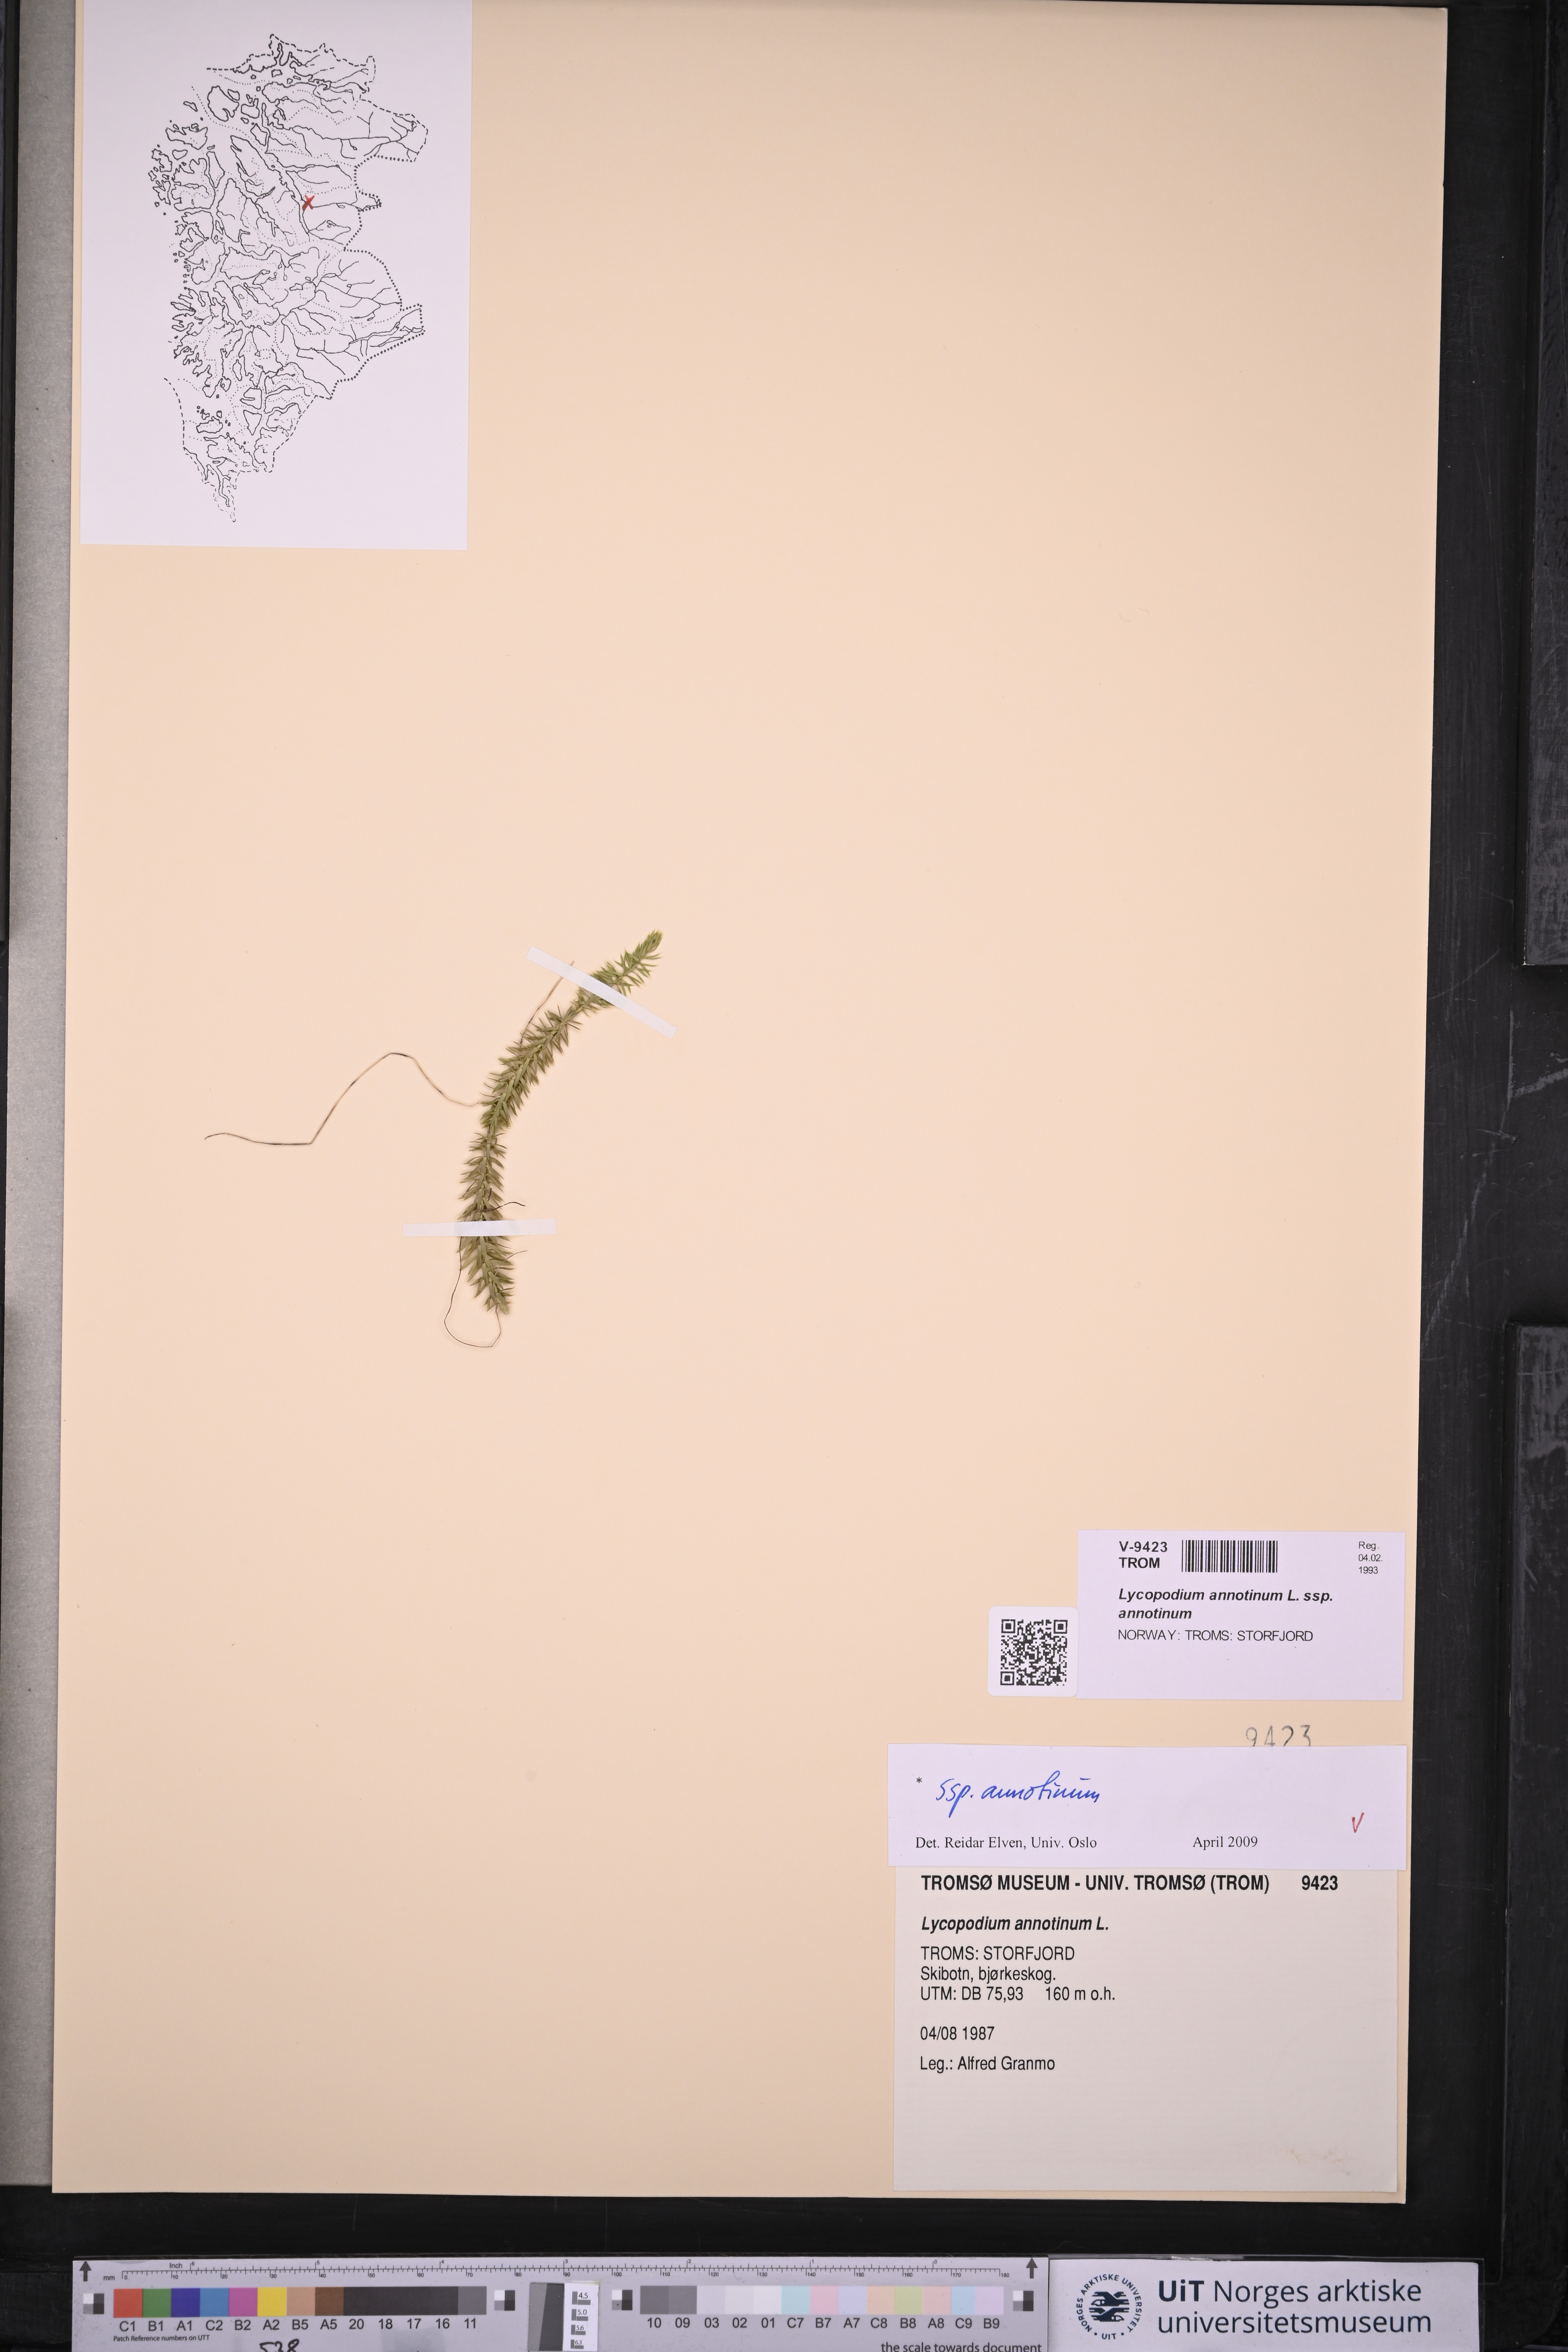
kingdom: Plantae
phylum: Tracheophyta
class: Lycopodiopsida
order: Lycopodiales
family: Lycopodiaceae
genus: Spinulum
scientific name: Spinulum annotinum
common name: Interrupted club-moss
